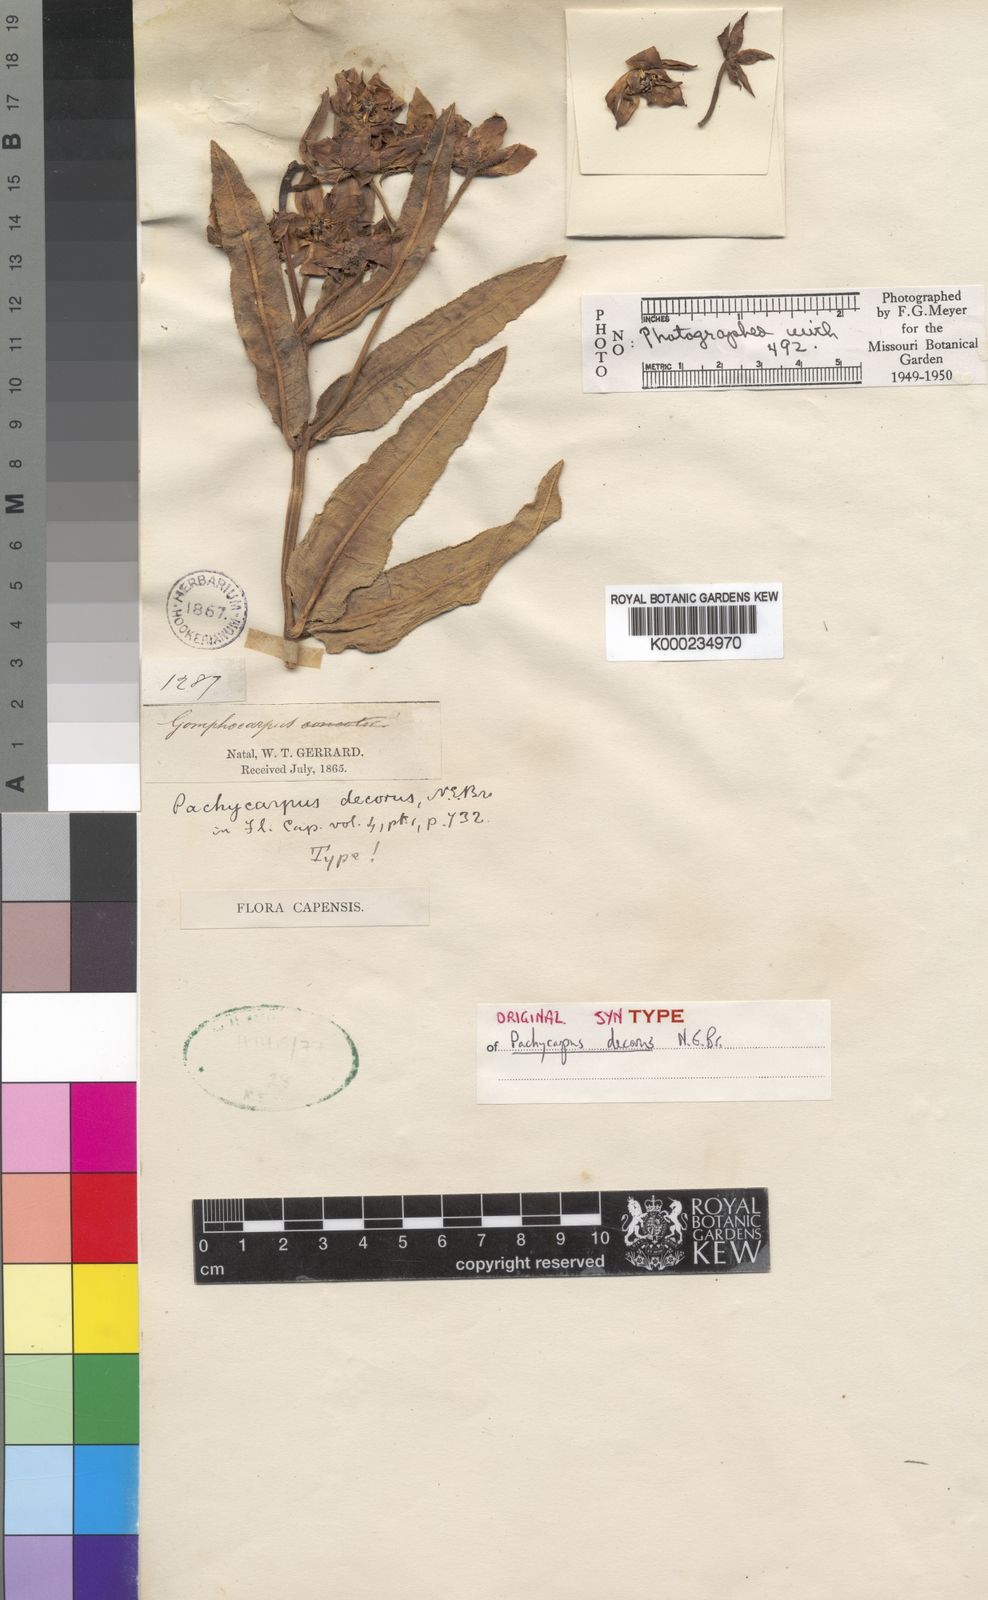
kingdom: Plantae
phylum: Tracheophyta
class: Magnoliopsida
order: Gentianales
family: Apocynaceae
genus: Pachycarpus
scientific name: Pachycarpus concolor
